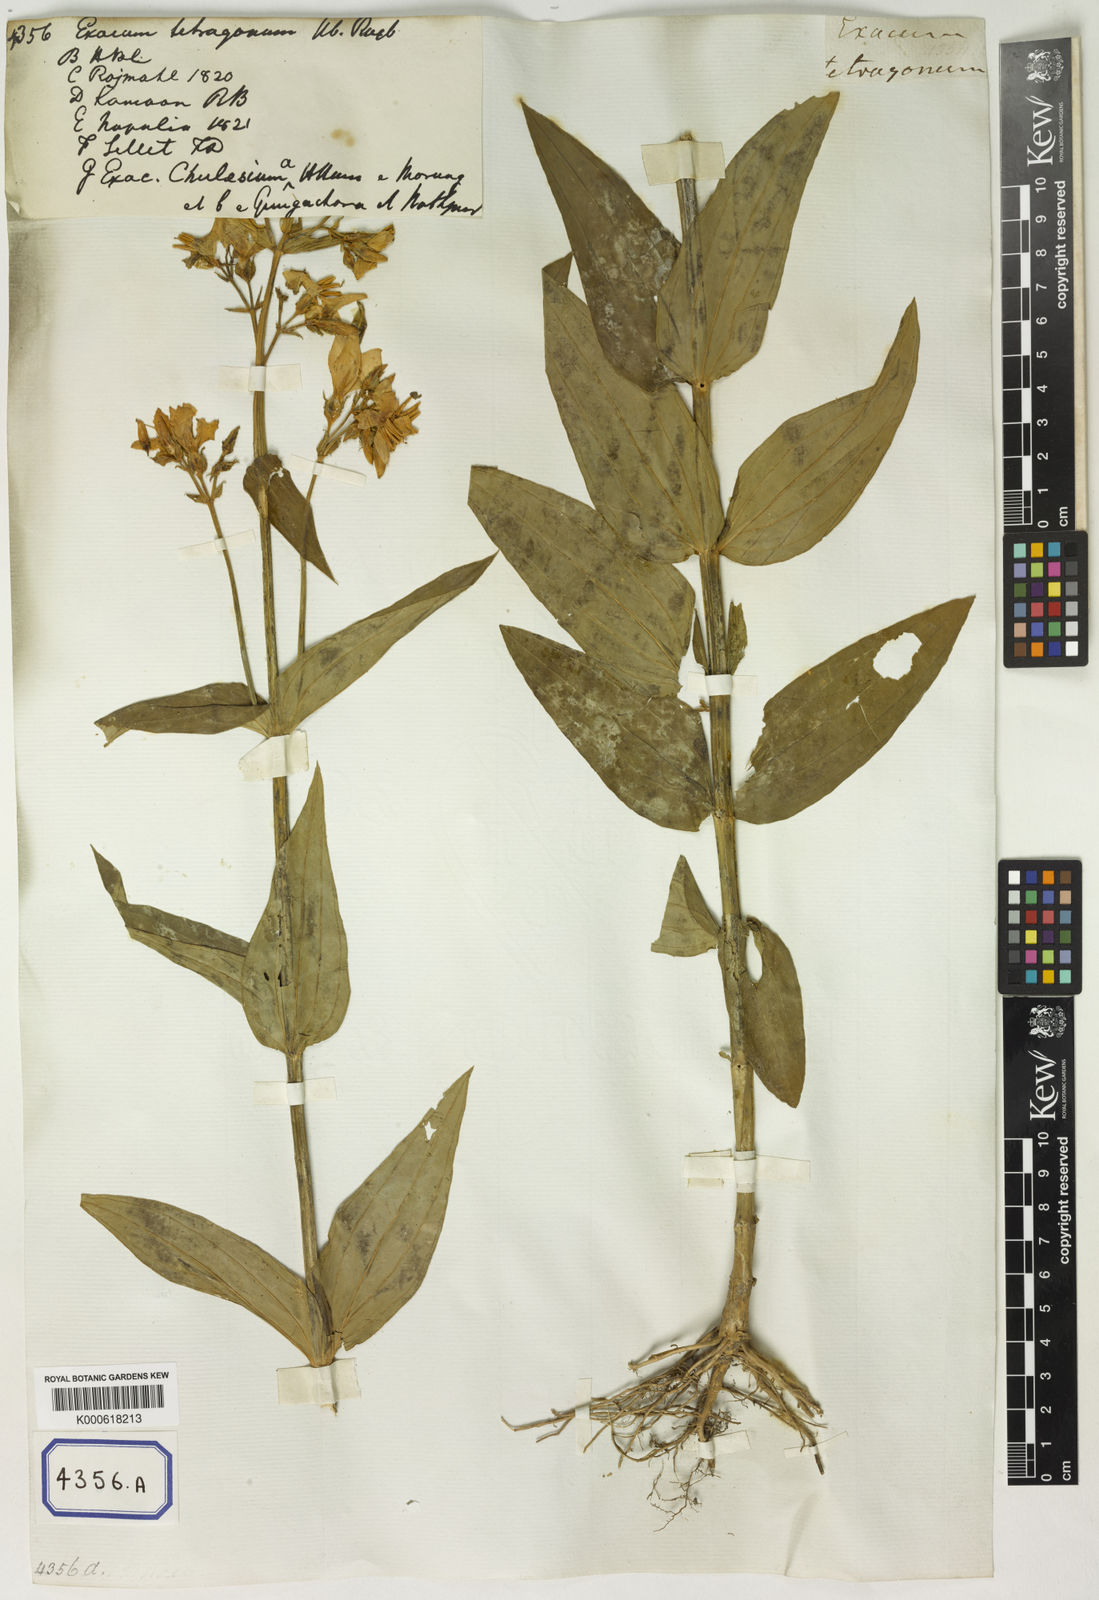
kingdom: Plantae
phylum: Tracheophyta
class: Magnoliopsida
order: Gentianales
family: Gentianaceae
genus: Exacum
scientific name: Exacum tetragonum
